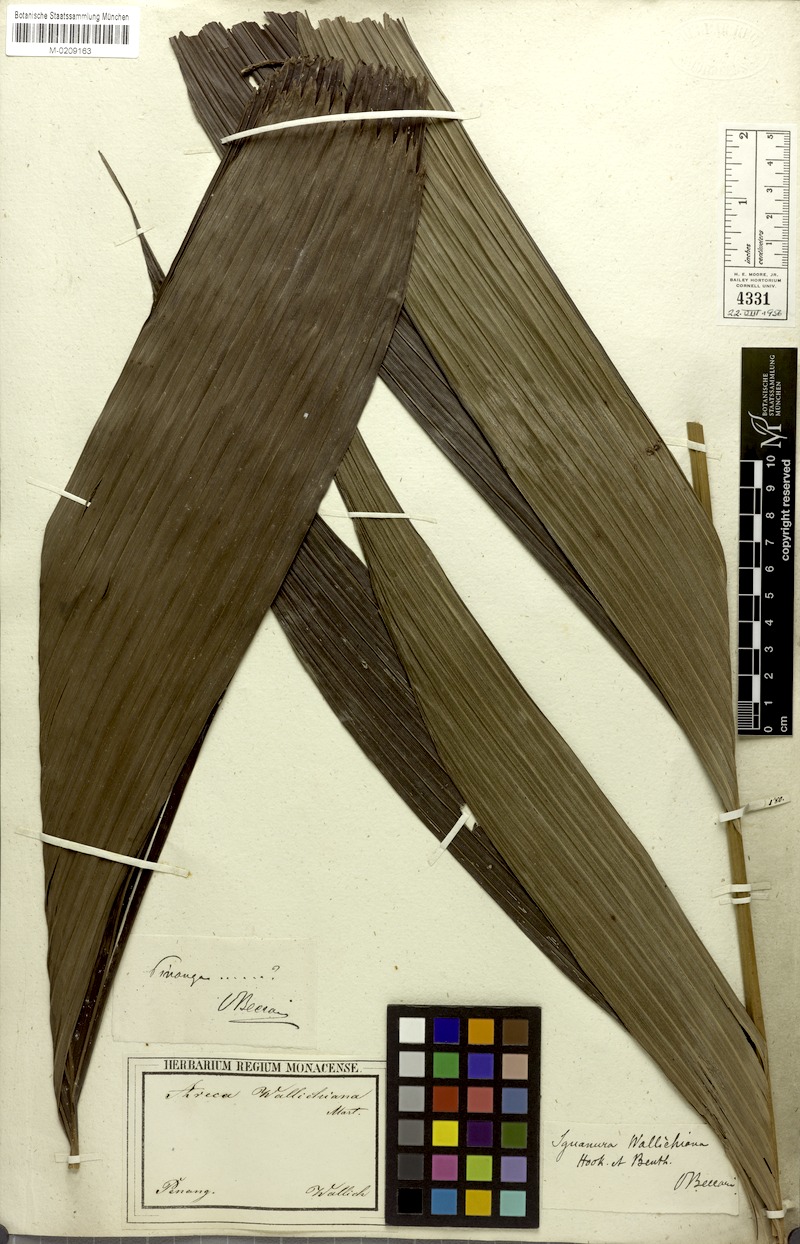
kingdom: Plantae
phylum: Tracheophyta
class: Liliopsida
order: Arecales
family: Arecaceae
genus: Iguanura
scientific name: Iguanura wallichiana
